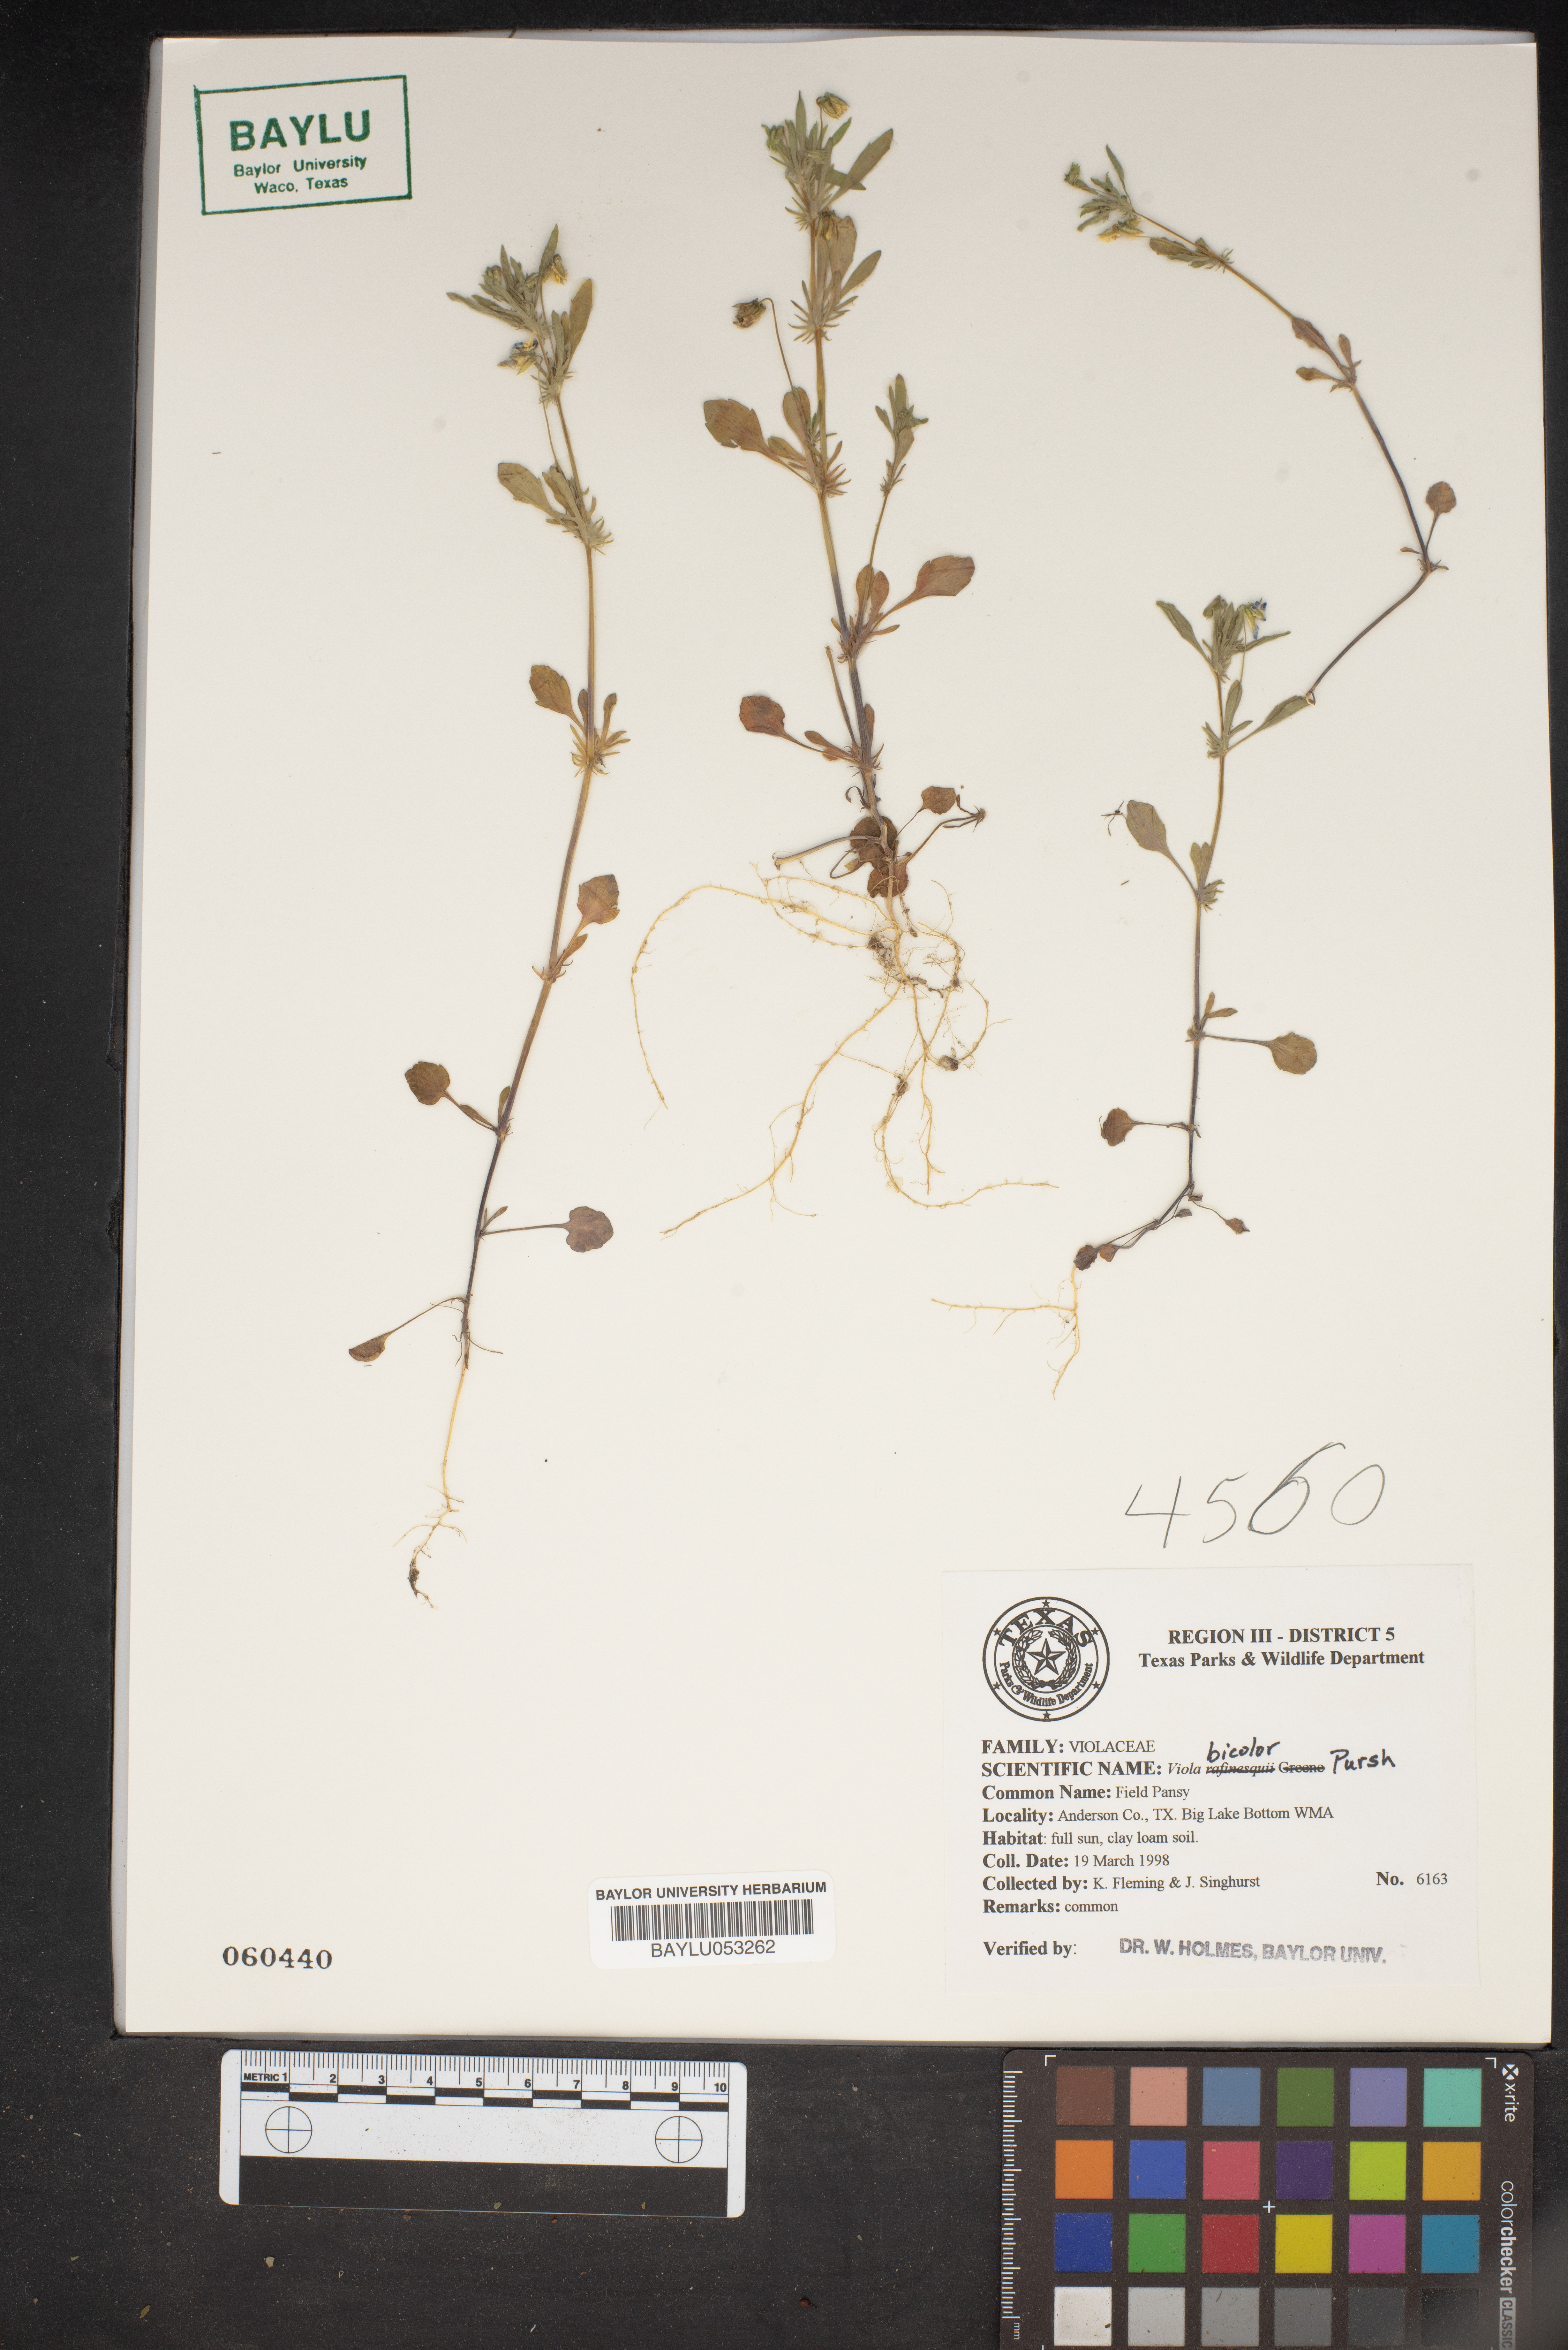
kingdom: Plantae
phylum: Tracheophyta
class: Magnoliopsida
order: Malpighiales
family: Violaceae
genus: Viola
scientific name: Viola rafinesquei
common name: American field pansy
